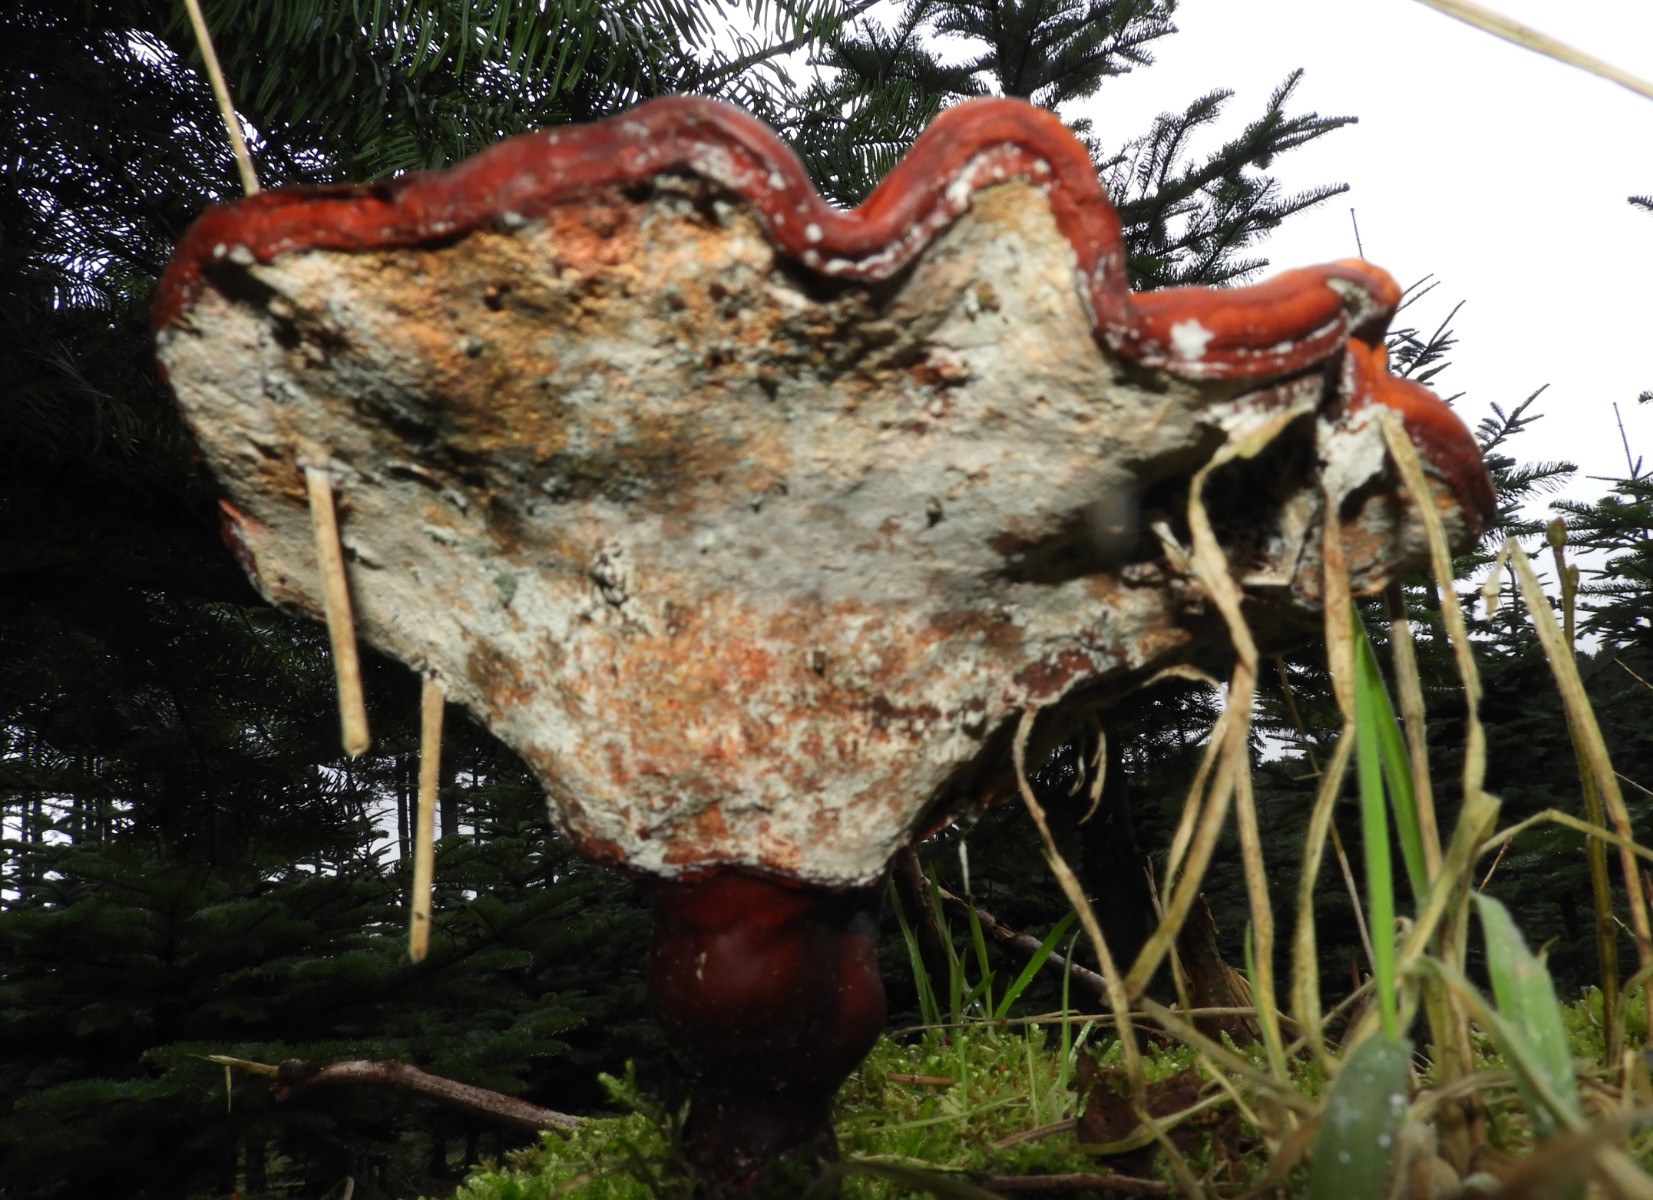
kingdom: Fungi
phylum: Basidiomycota
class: Agaricomycetes
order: Polyporales
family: Polyporaceae
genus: Ganoderma
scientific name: Ganoderma lucidum
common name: skinnende lakporesvamp
